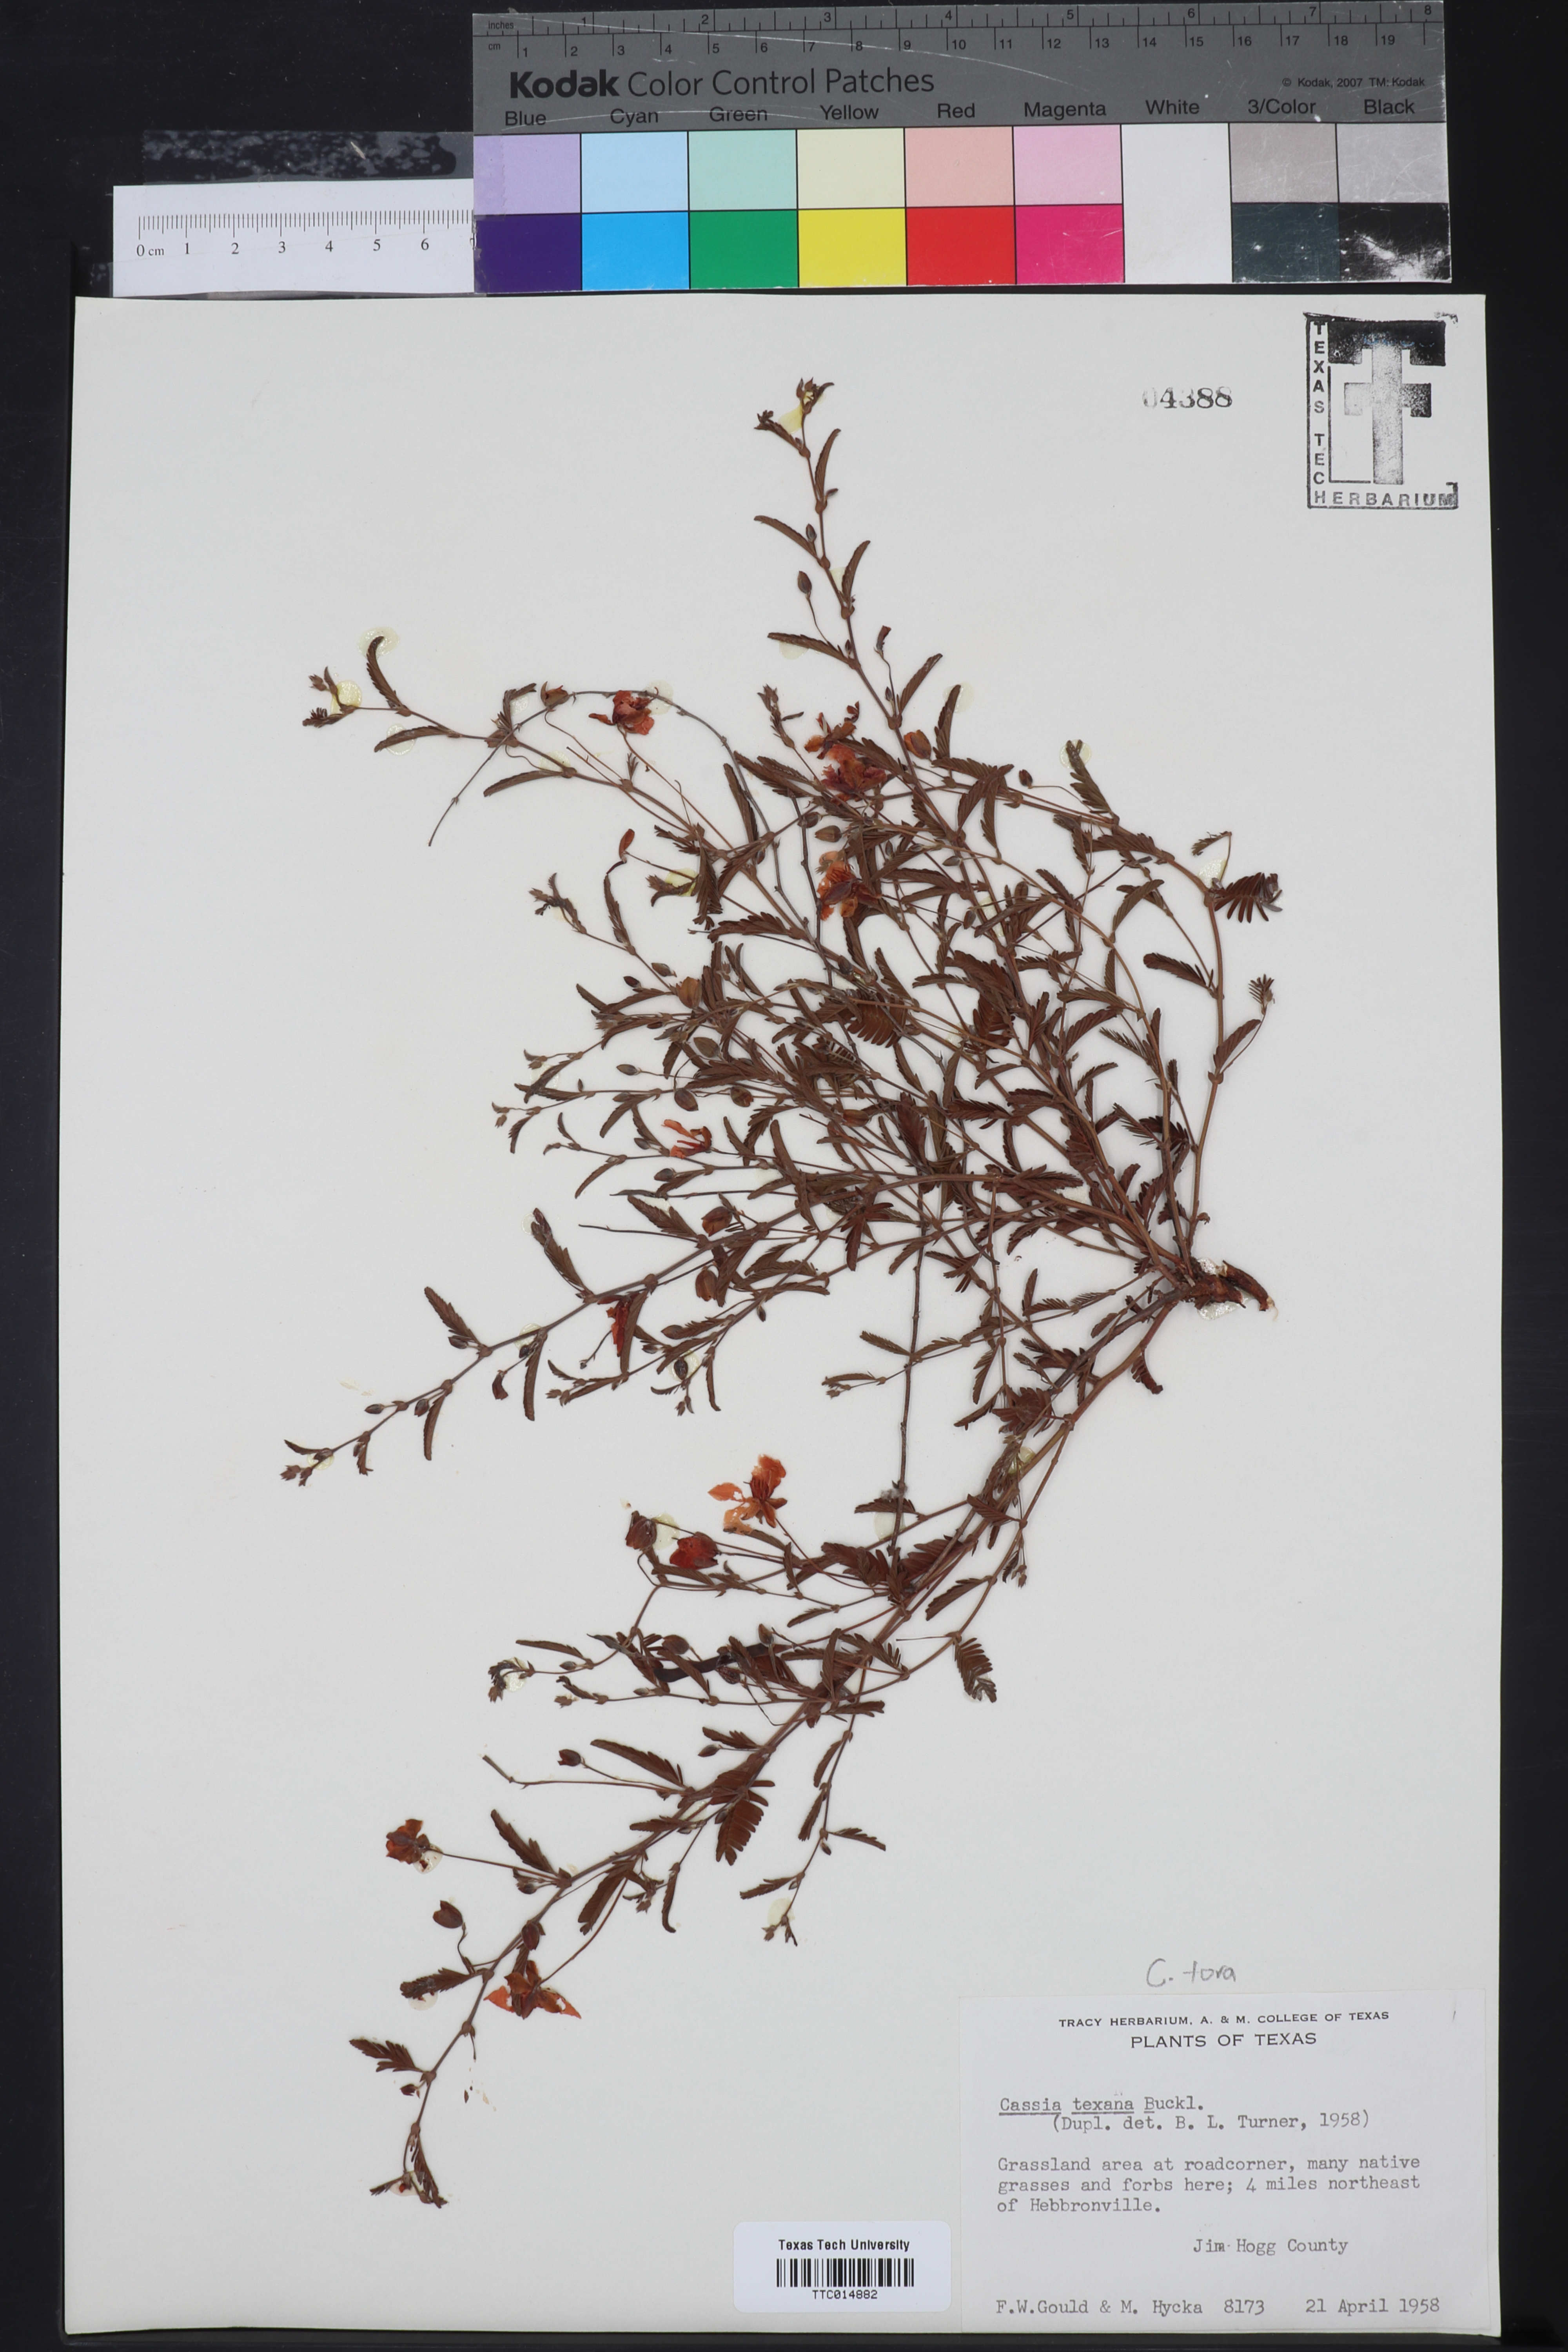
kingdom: Plantae
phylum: Tracheophyta
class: Magnoliopsida
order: Fabales
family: Fabaceae
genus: Chamaecrista
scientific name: Chamaecrista flexuosa
